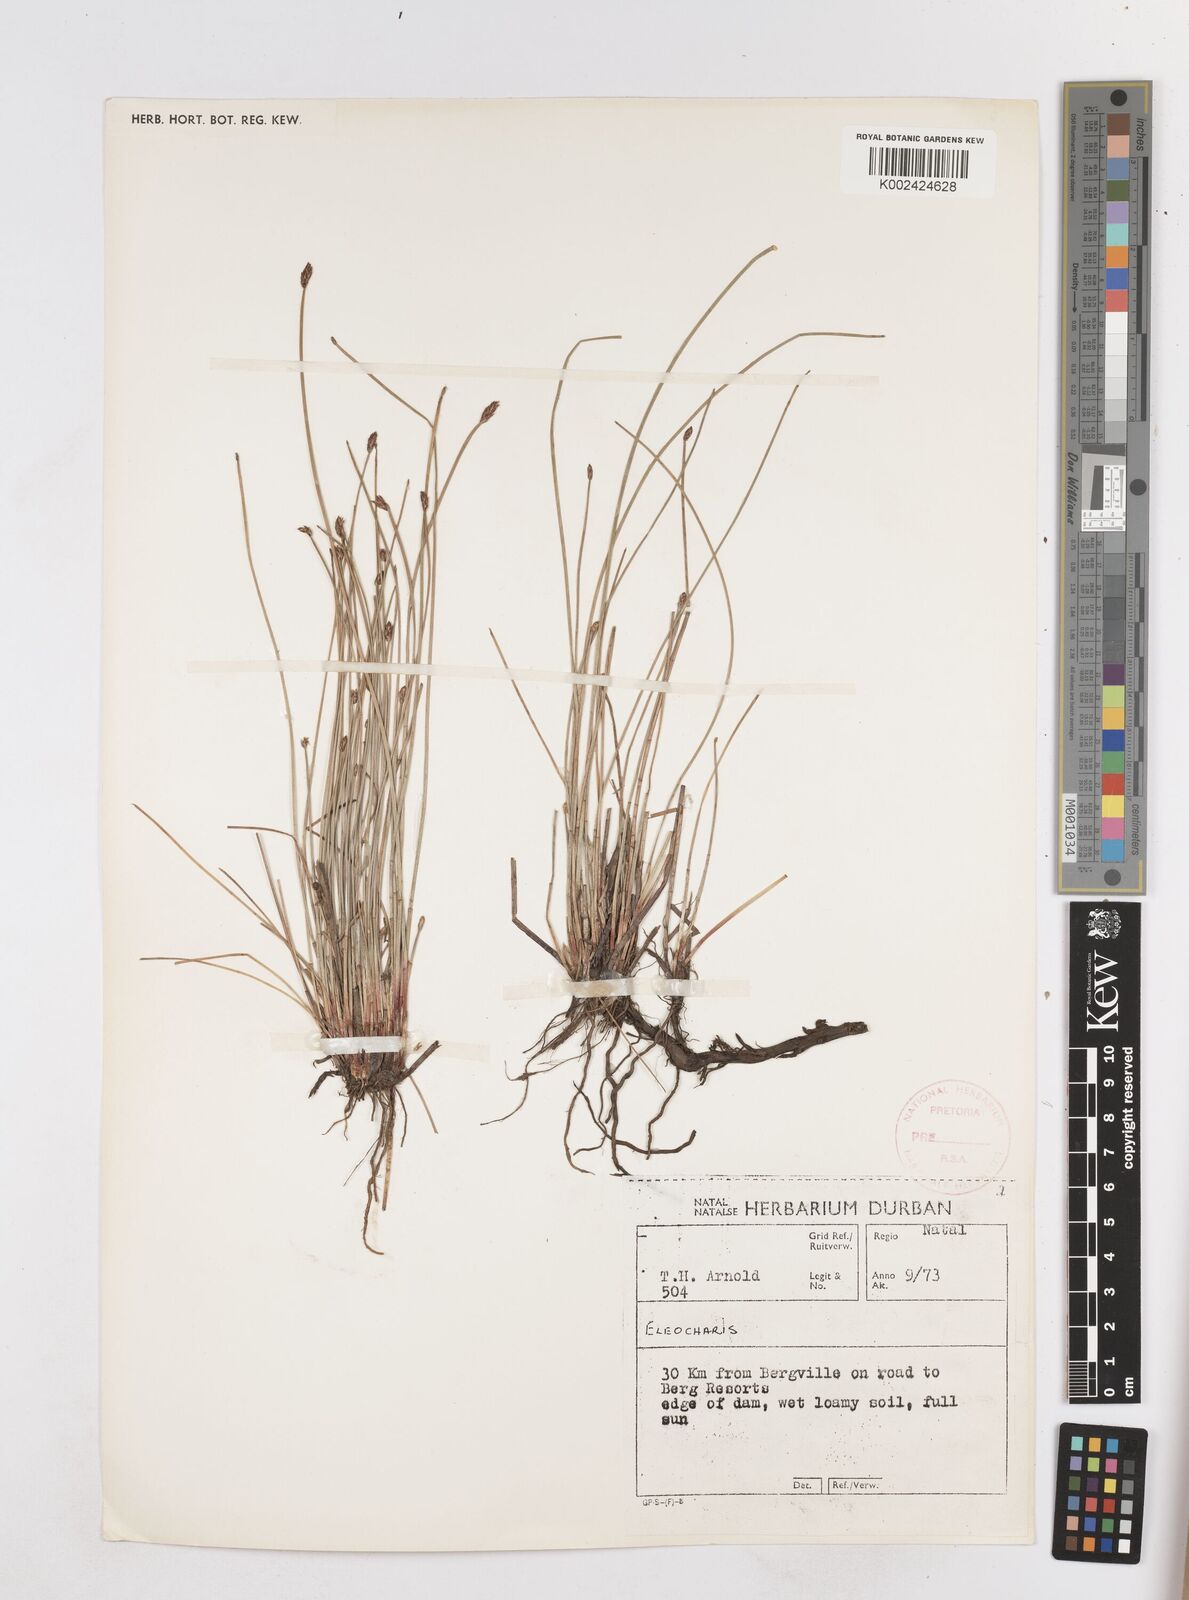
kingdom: Plantae
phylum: Tracheophyta
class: Liliopsida
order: Poales
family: Cyperaceae
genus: Eleocharis
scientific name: Eleocharis
